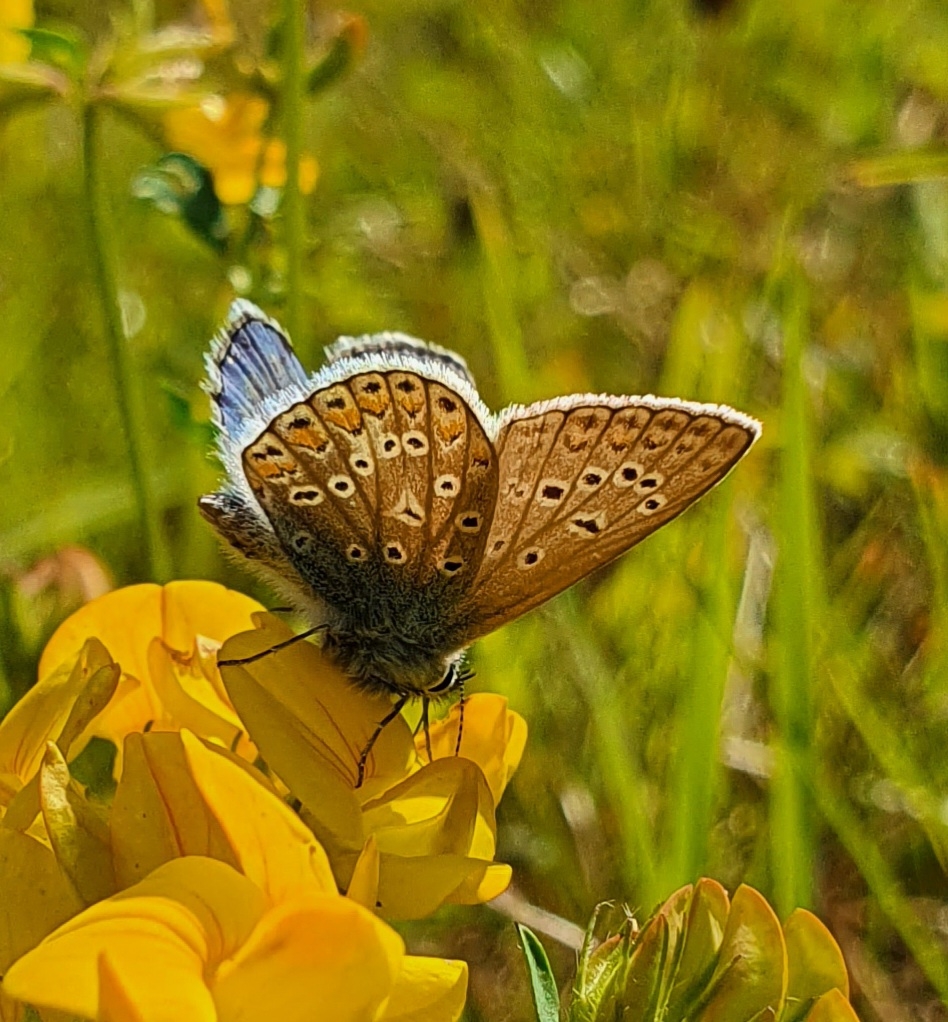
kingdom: Animalia
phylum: Arthropoda
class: Insecta
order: Lepidoptera
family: Lycaenidae
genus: Polyommatus
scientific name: Polyommatus icarus
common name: Almindelig blåfugl
